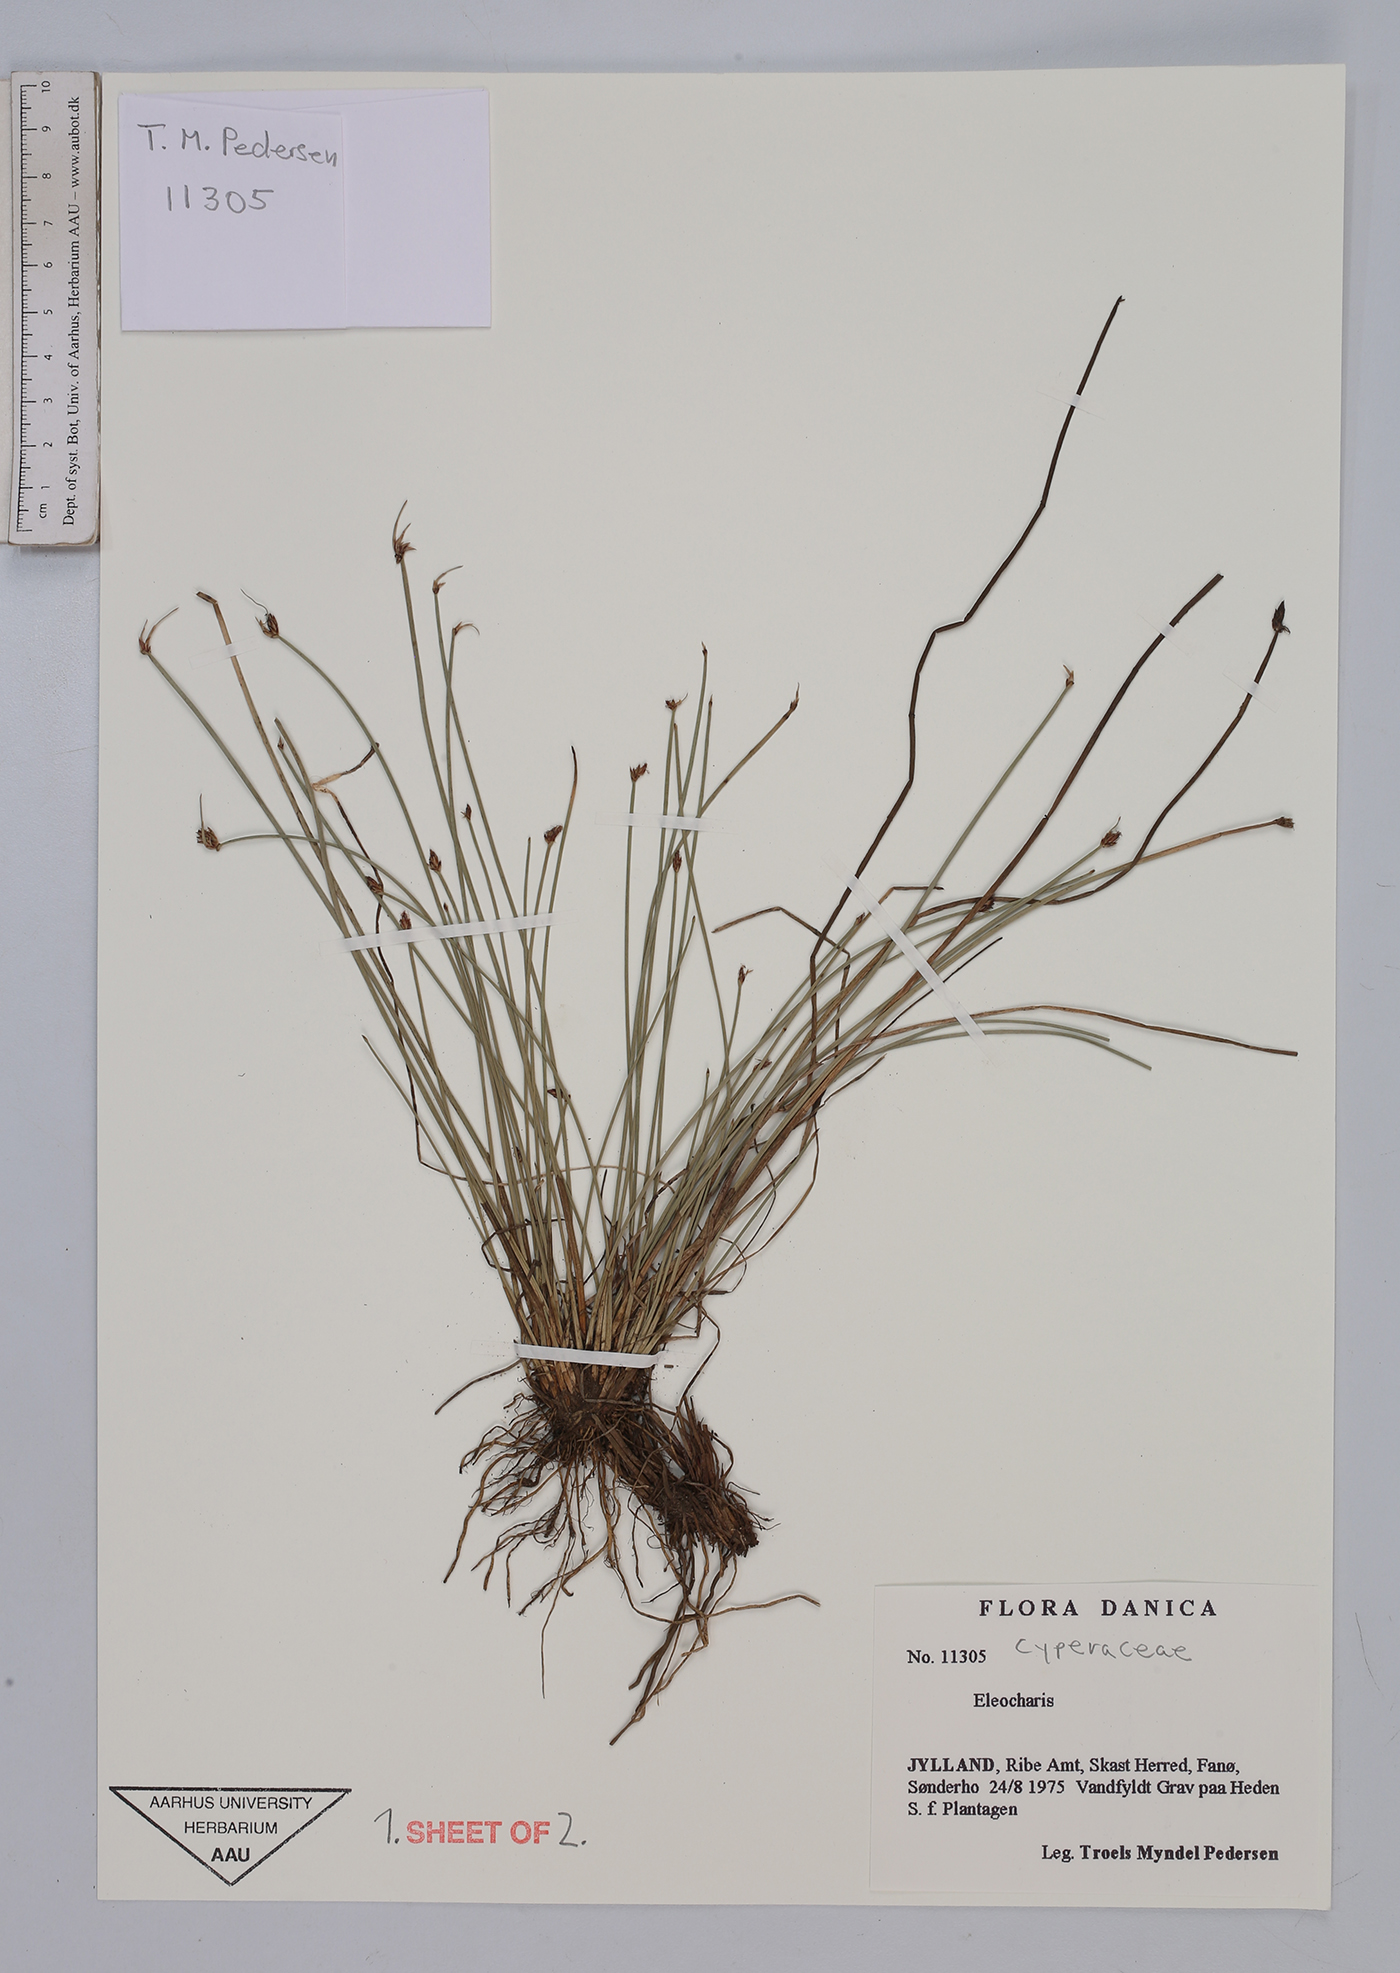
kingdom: Plantae
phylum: Tracheophyta
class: Liliopsida
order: Poales
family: Cyperaceae
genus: Eleocharis
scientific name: Eleocharis
